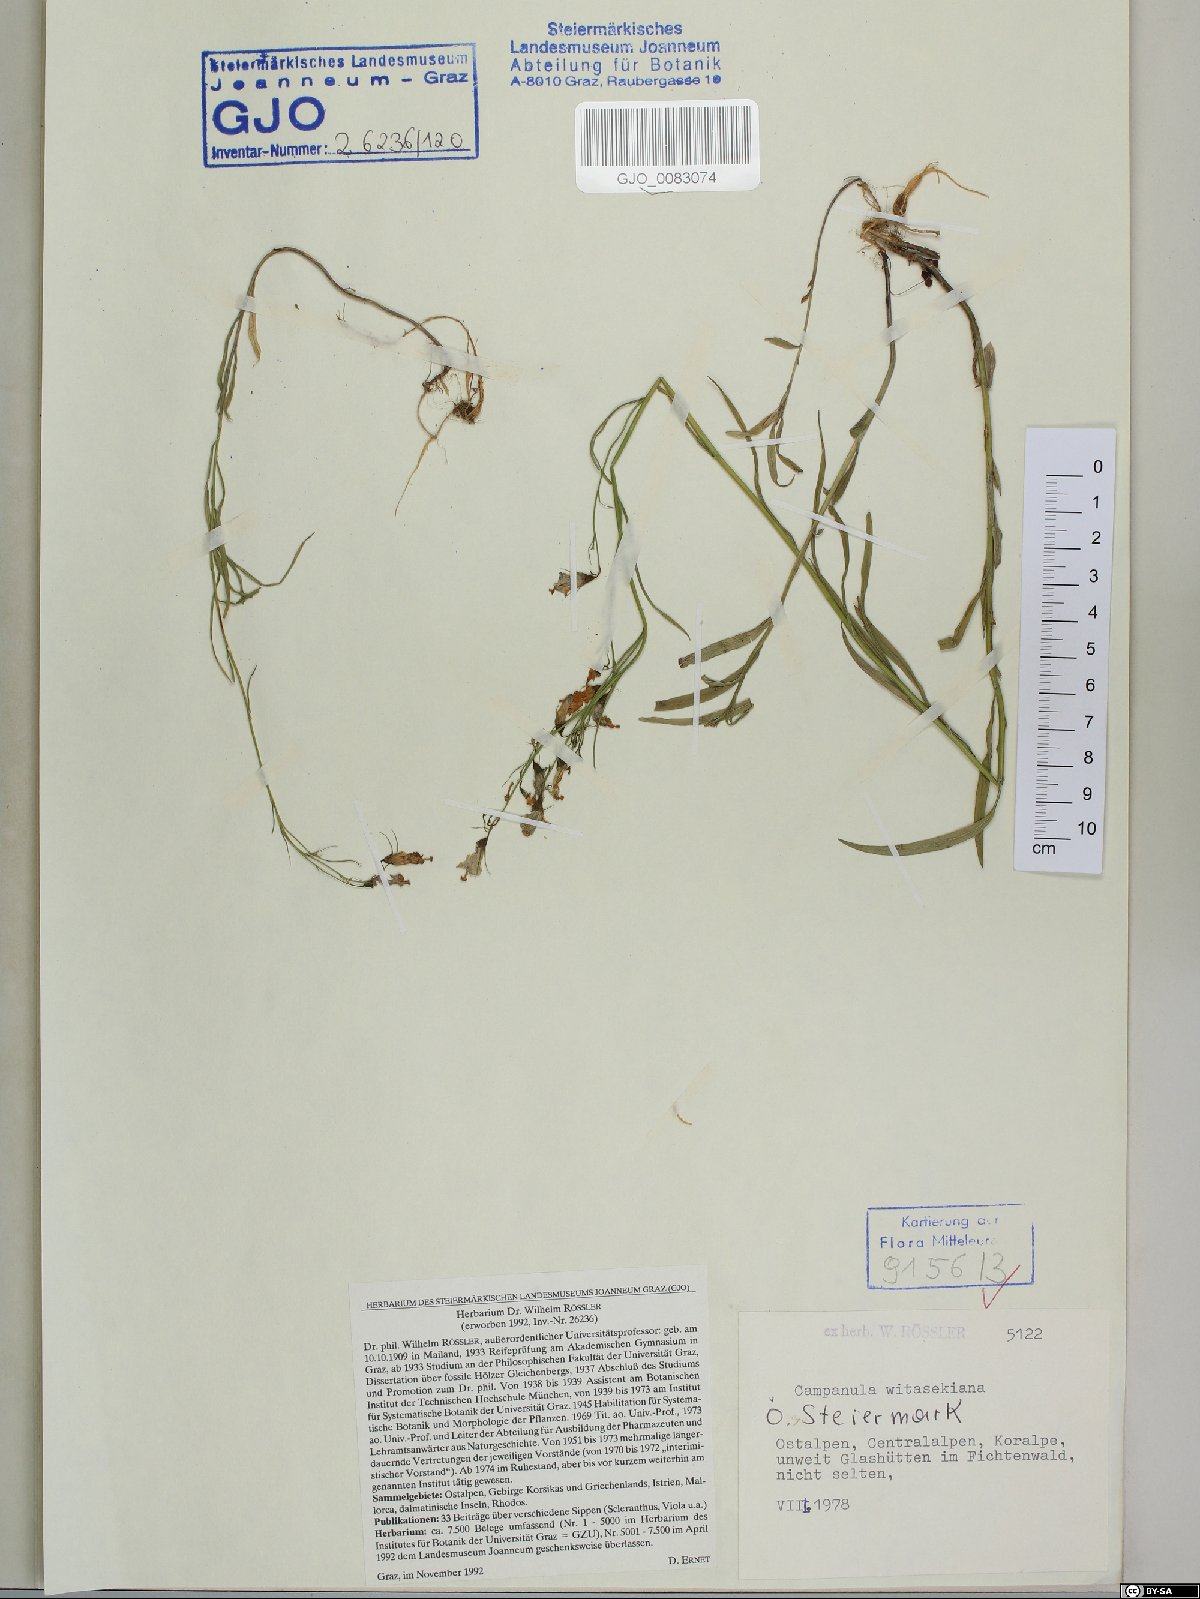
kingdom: Plantae
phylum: Tracheophyta
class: Magnoliopsida
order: Asterales
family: Campanulaceae
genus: Campanula
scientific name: Campanula witasekiana
